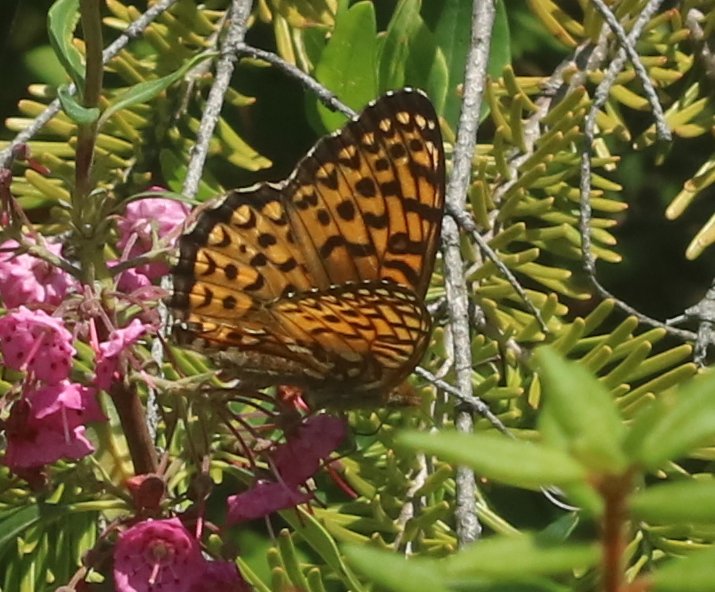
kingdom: Animalia
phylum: Arthropoda
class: Insecta
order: Lepidoptera
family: Nymphalidae
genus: Speyeria
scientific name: Speyeria atlantis
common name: Atlantis Fritillary
